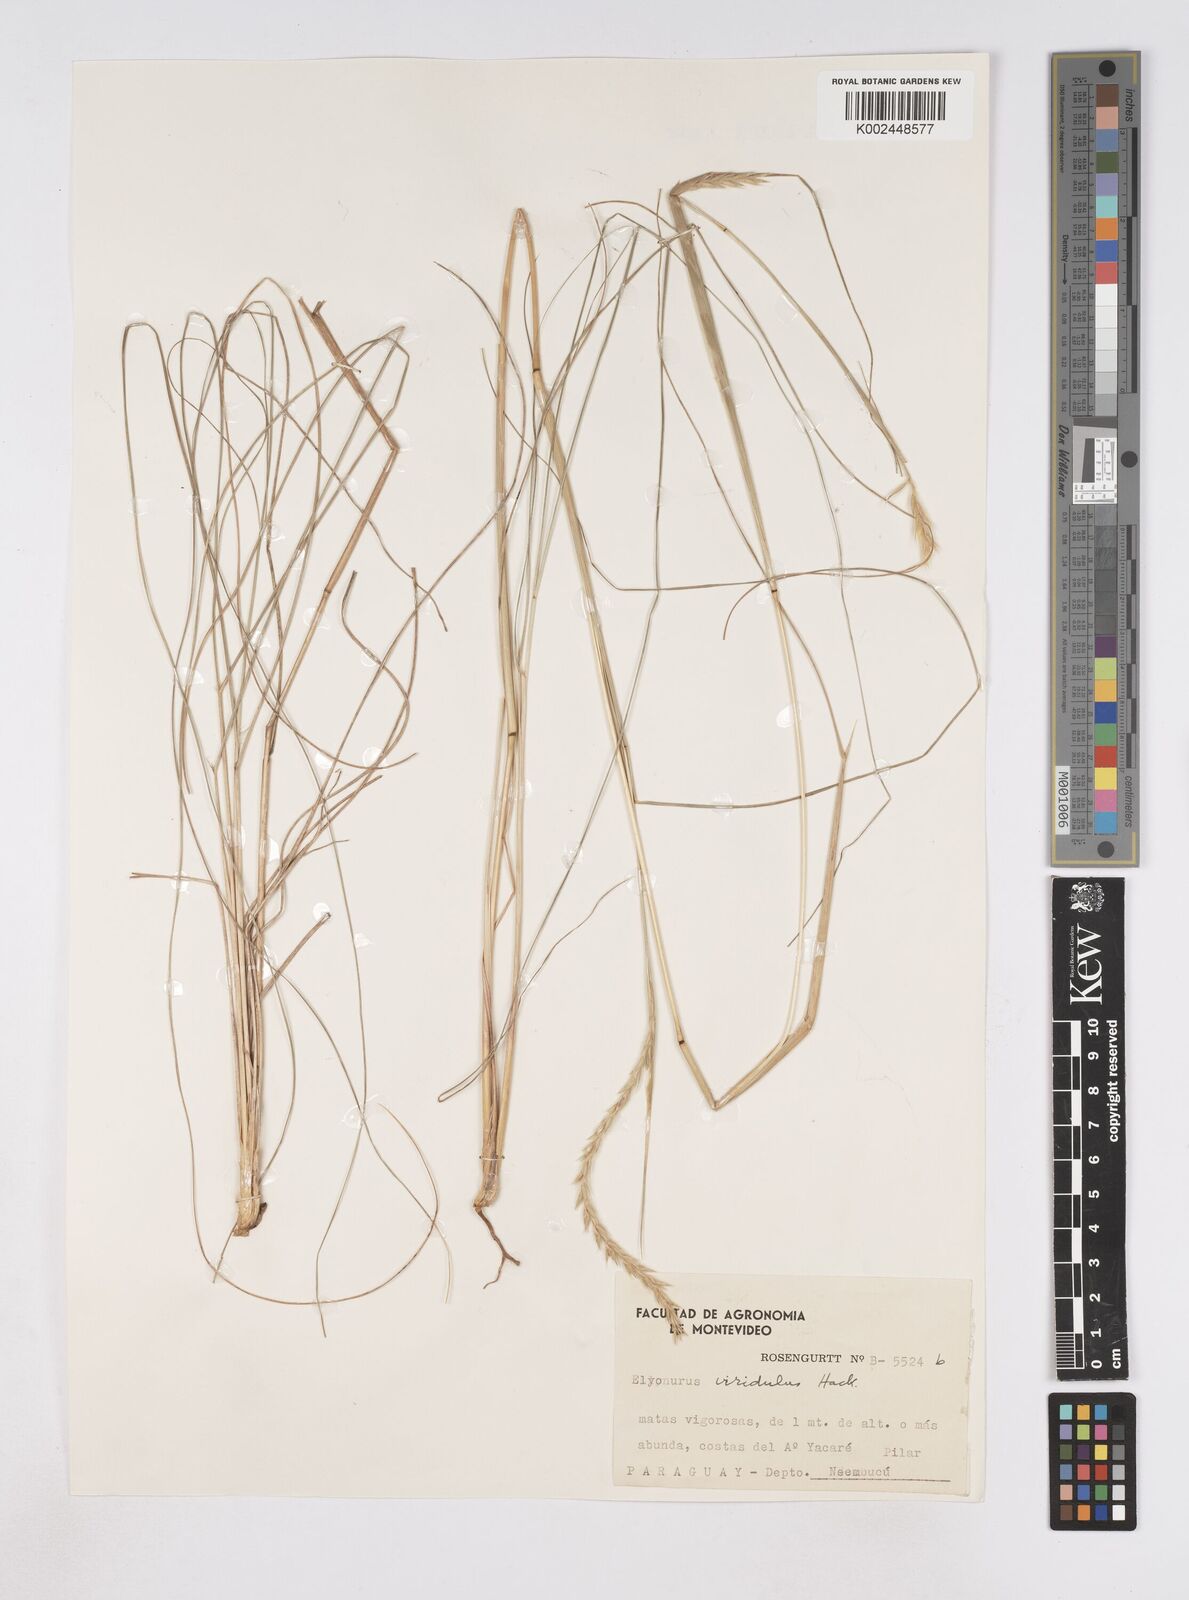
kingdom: Plantae
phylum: Tracheophyta
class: Liliopsida
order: Poales
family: Poaceae
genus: Elionurus
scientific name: Elionurus muticus
